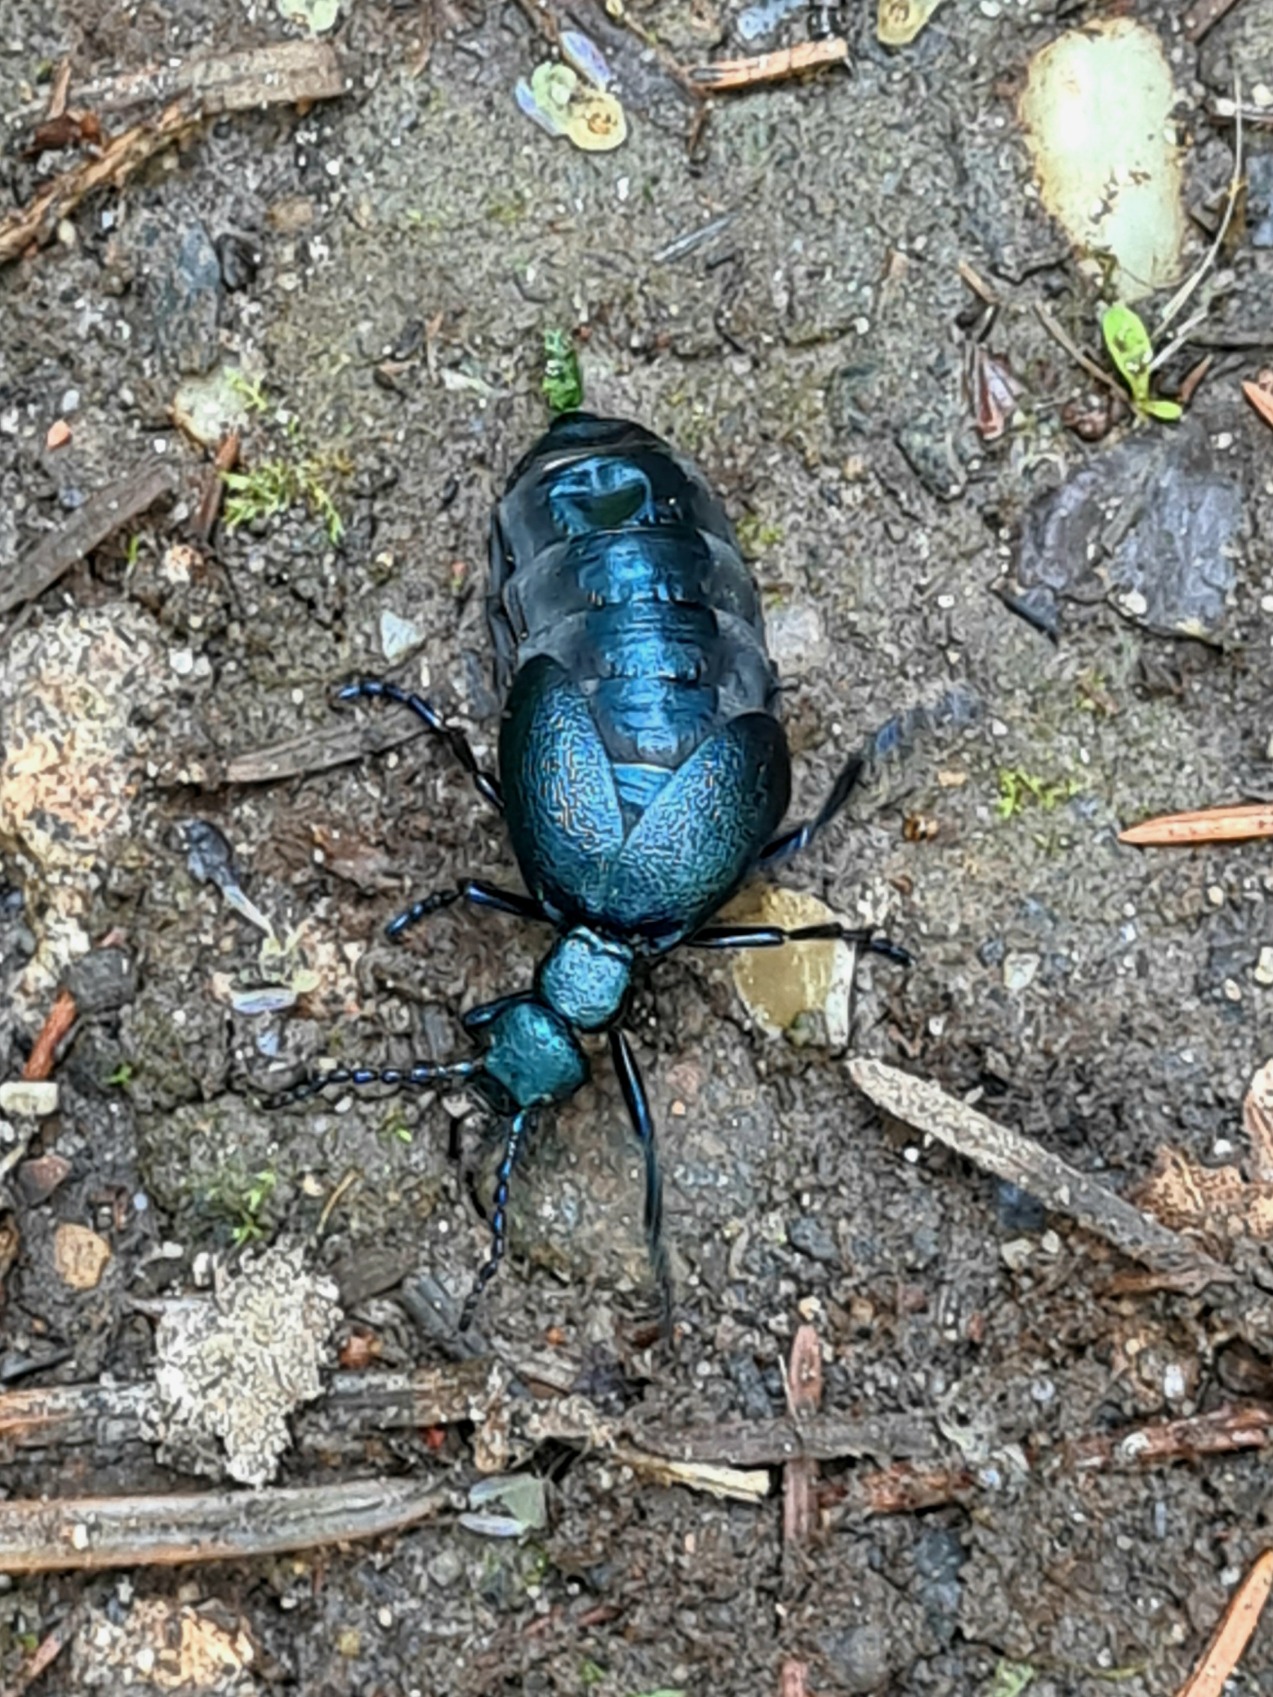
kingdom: Animalia
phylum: Arthropoda
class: Insecta
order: Coleoptera
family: Meloidae
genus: Meloe
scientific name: Meloe violaceus
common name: Blå oliebille
